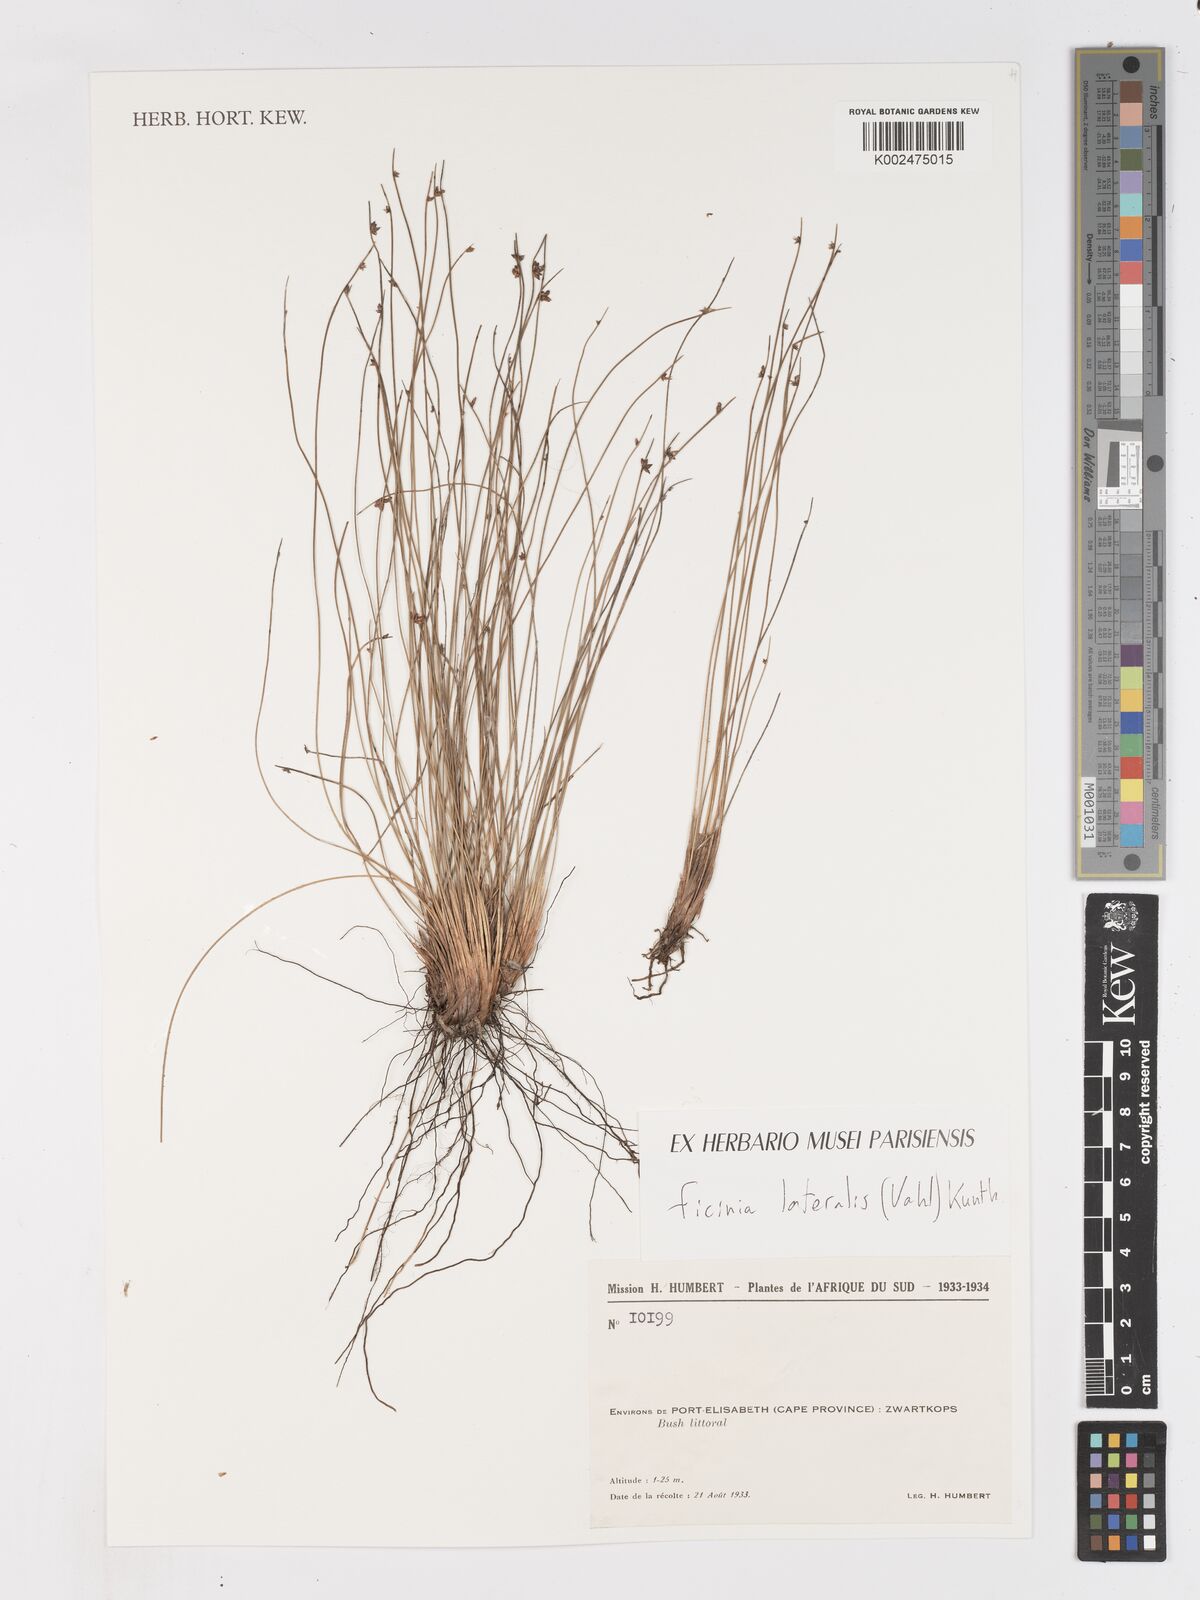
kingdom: Plantae
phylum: Tracheophyta
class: Liliopsida
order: Poales
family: Cyperaceae
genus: Ficinia
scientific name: Ficinia lateralis
